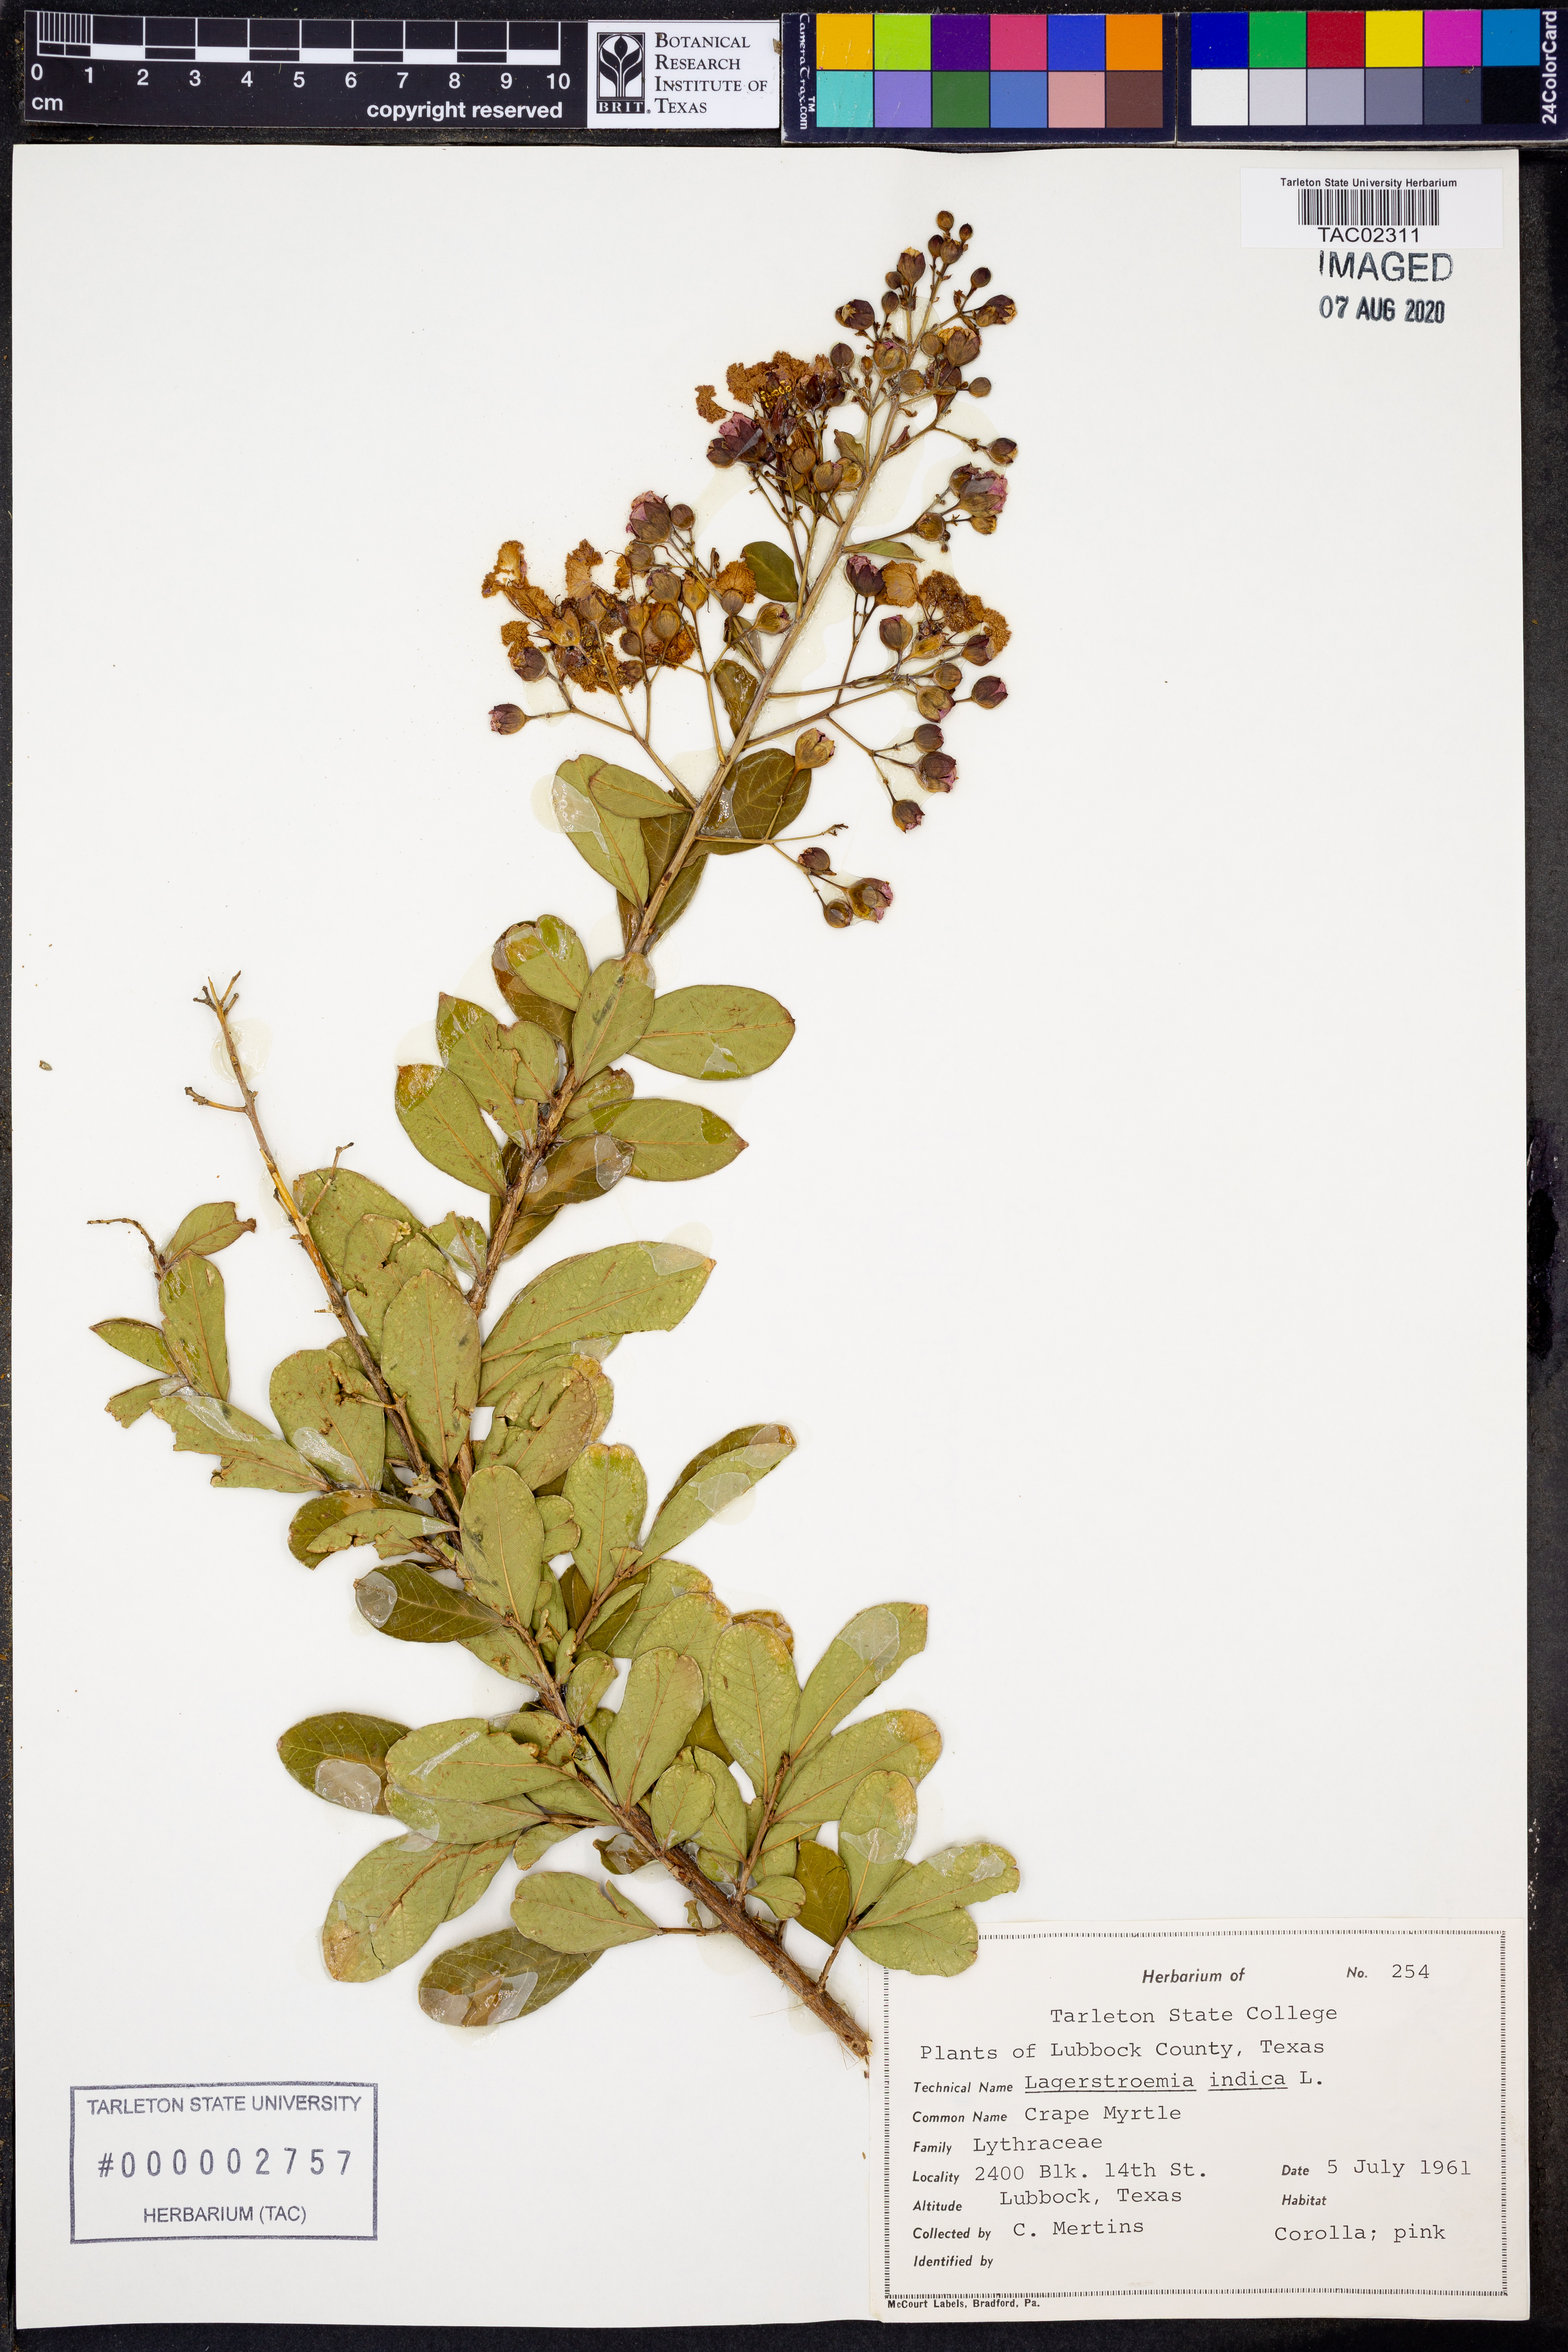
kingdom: Plantae
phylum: Tracheophyta
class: Magnoliopsida
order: Myrtales
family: Lythraceae
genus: Lagerstroemia
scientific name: Lagerstroemia indica
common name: Crape-myrtle
